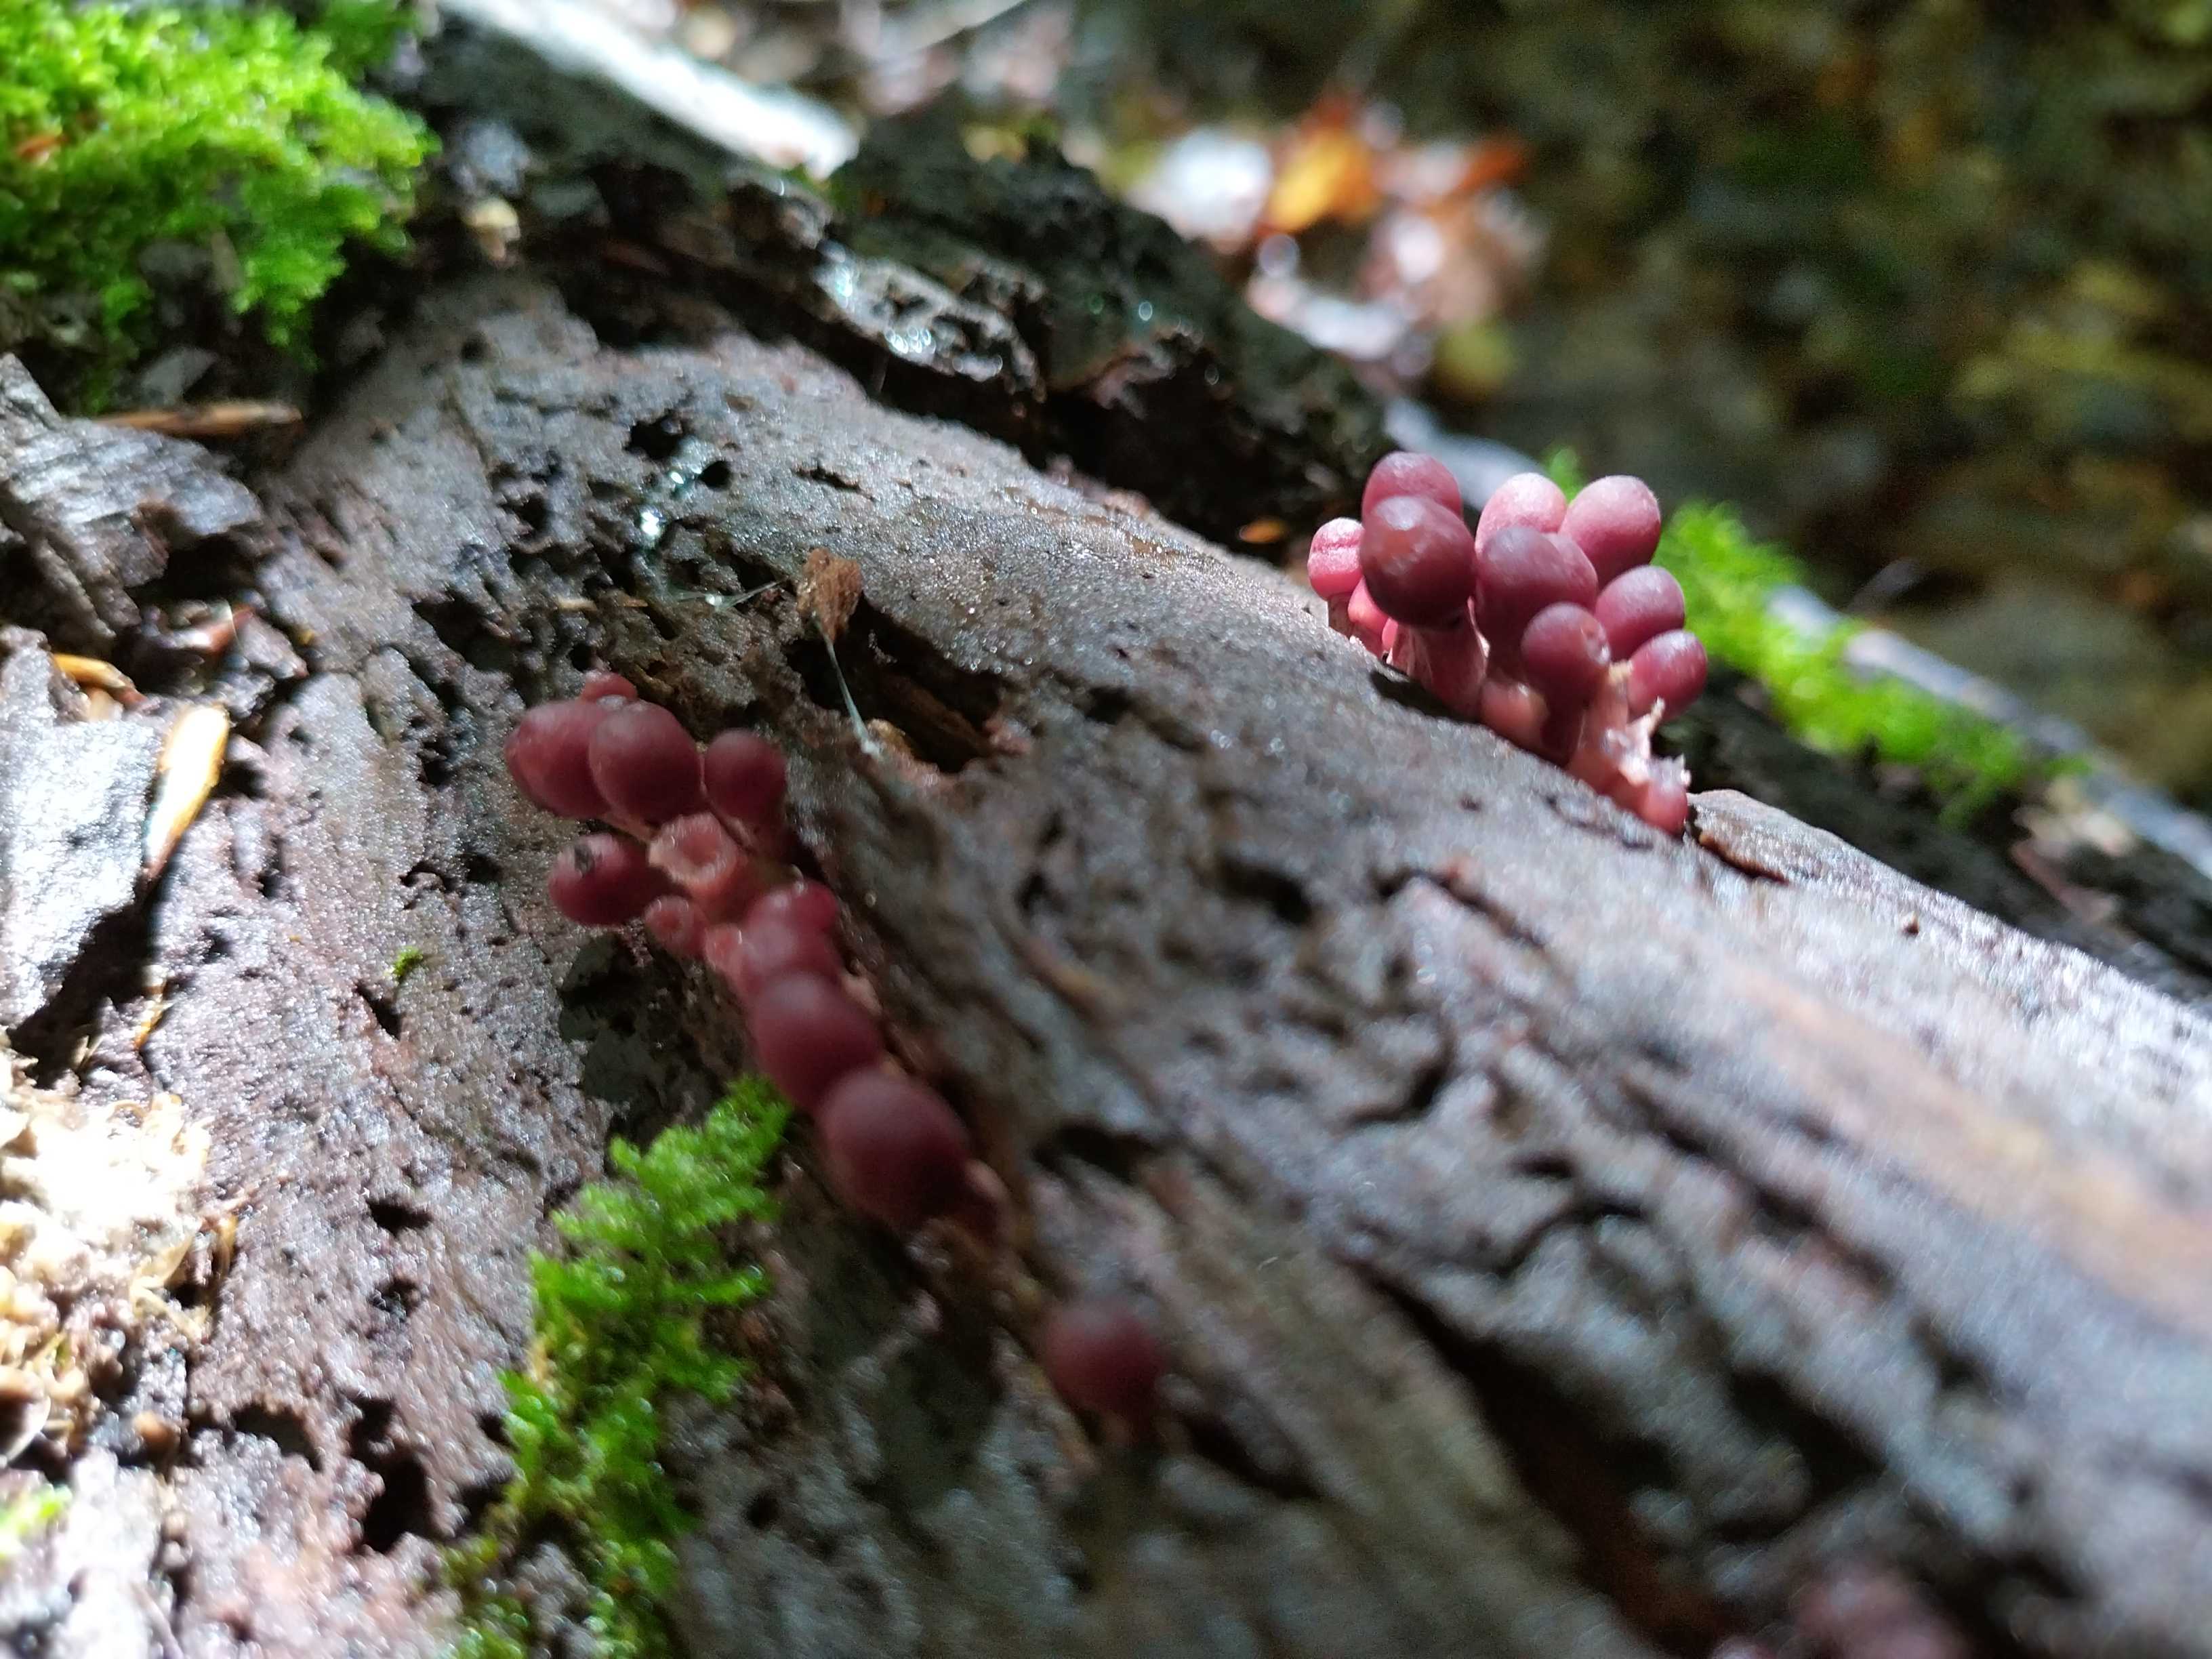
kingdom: Fungi
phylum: Basidiomycota
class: Agaricomycetes
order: Agaricales
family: Mycenaceae
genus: Mycena
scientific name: Mycena haematopus
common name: blødende huesvamp
